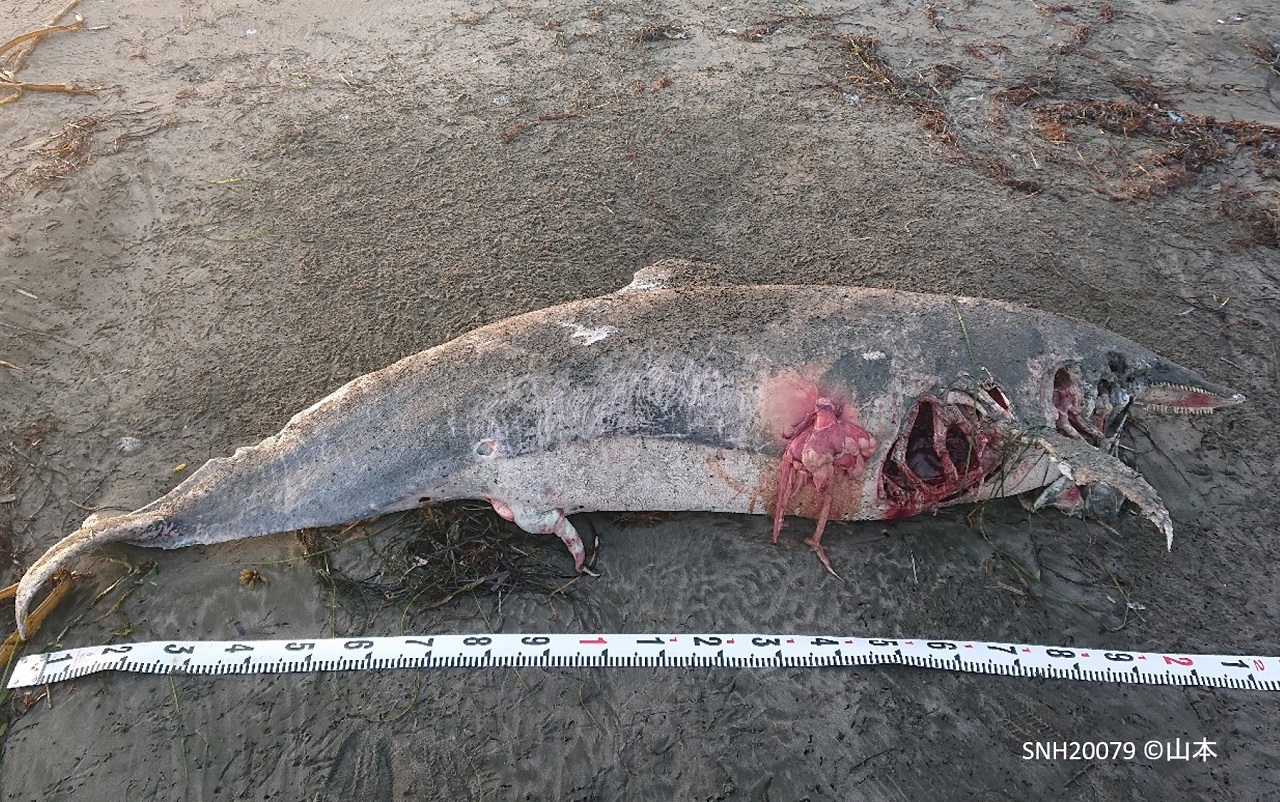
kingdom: Animalia
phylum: Chordata
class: Mammalia
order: Cetacea
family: Delphinidae
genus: Lagenorhynchus
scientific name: Lagenorhynchus obliquidens
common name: Pacific white-sided dolphin
